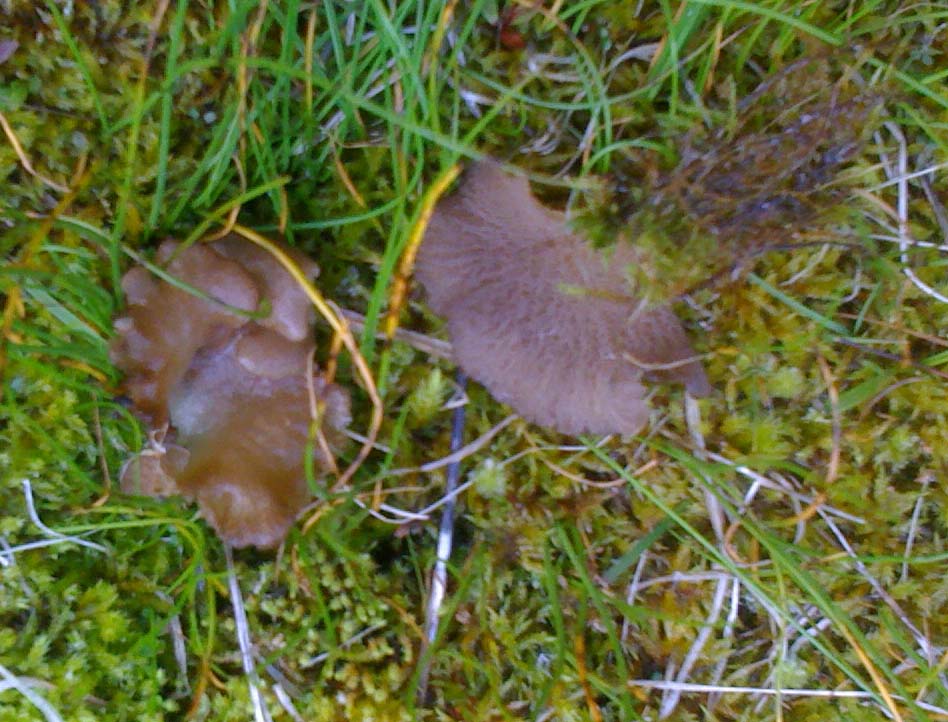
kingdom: Fungi
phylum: Basidiomycota
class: Agaricomycetes
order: Agaricales
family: Hygrophoraceae
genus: Arrhenia
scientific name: Arrhenia lobata
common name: siddende fontænehat
